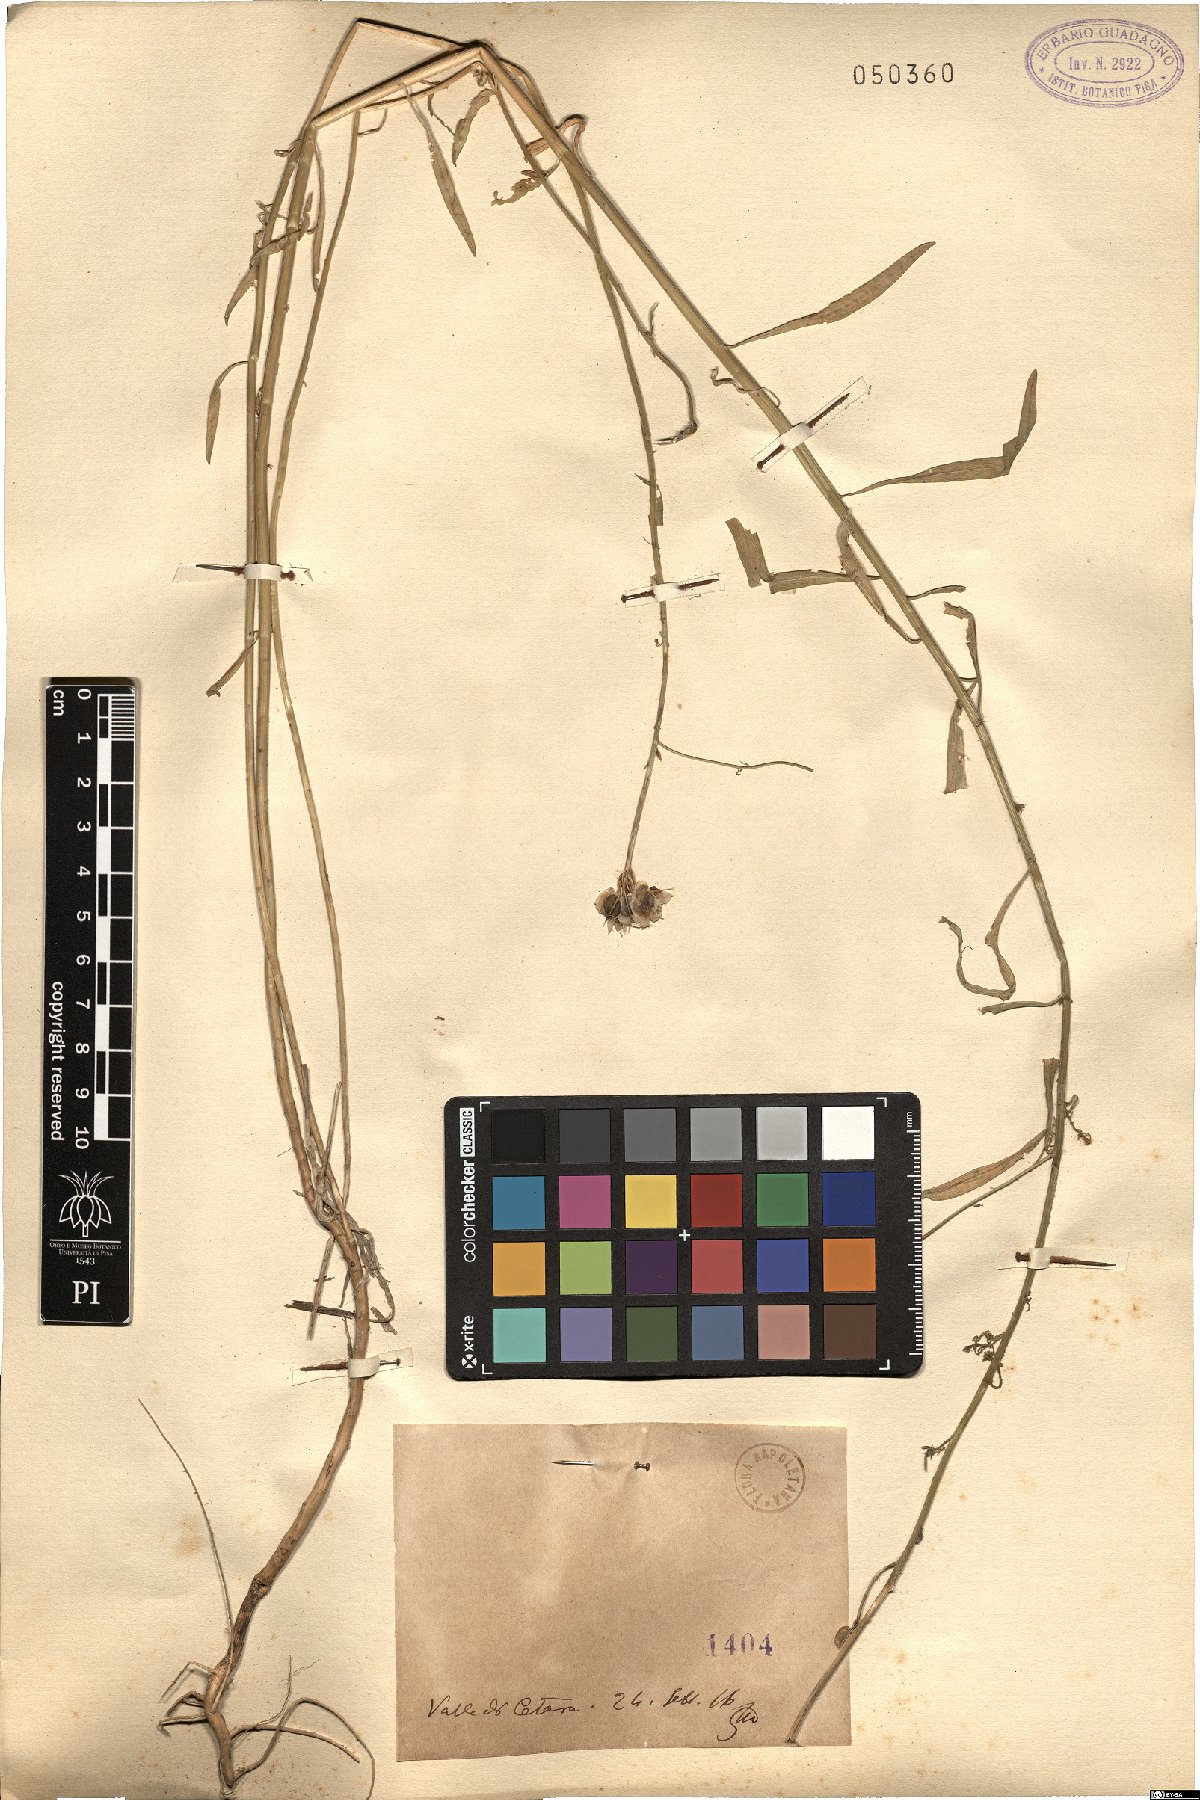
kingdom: Plantae
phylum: Tracheophyta
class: Magnoliopsida
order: Brassicales
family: Brassicaceae
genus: Iberis
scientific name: Iberis
